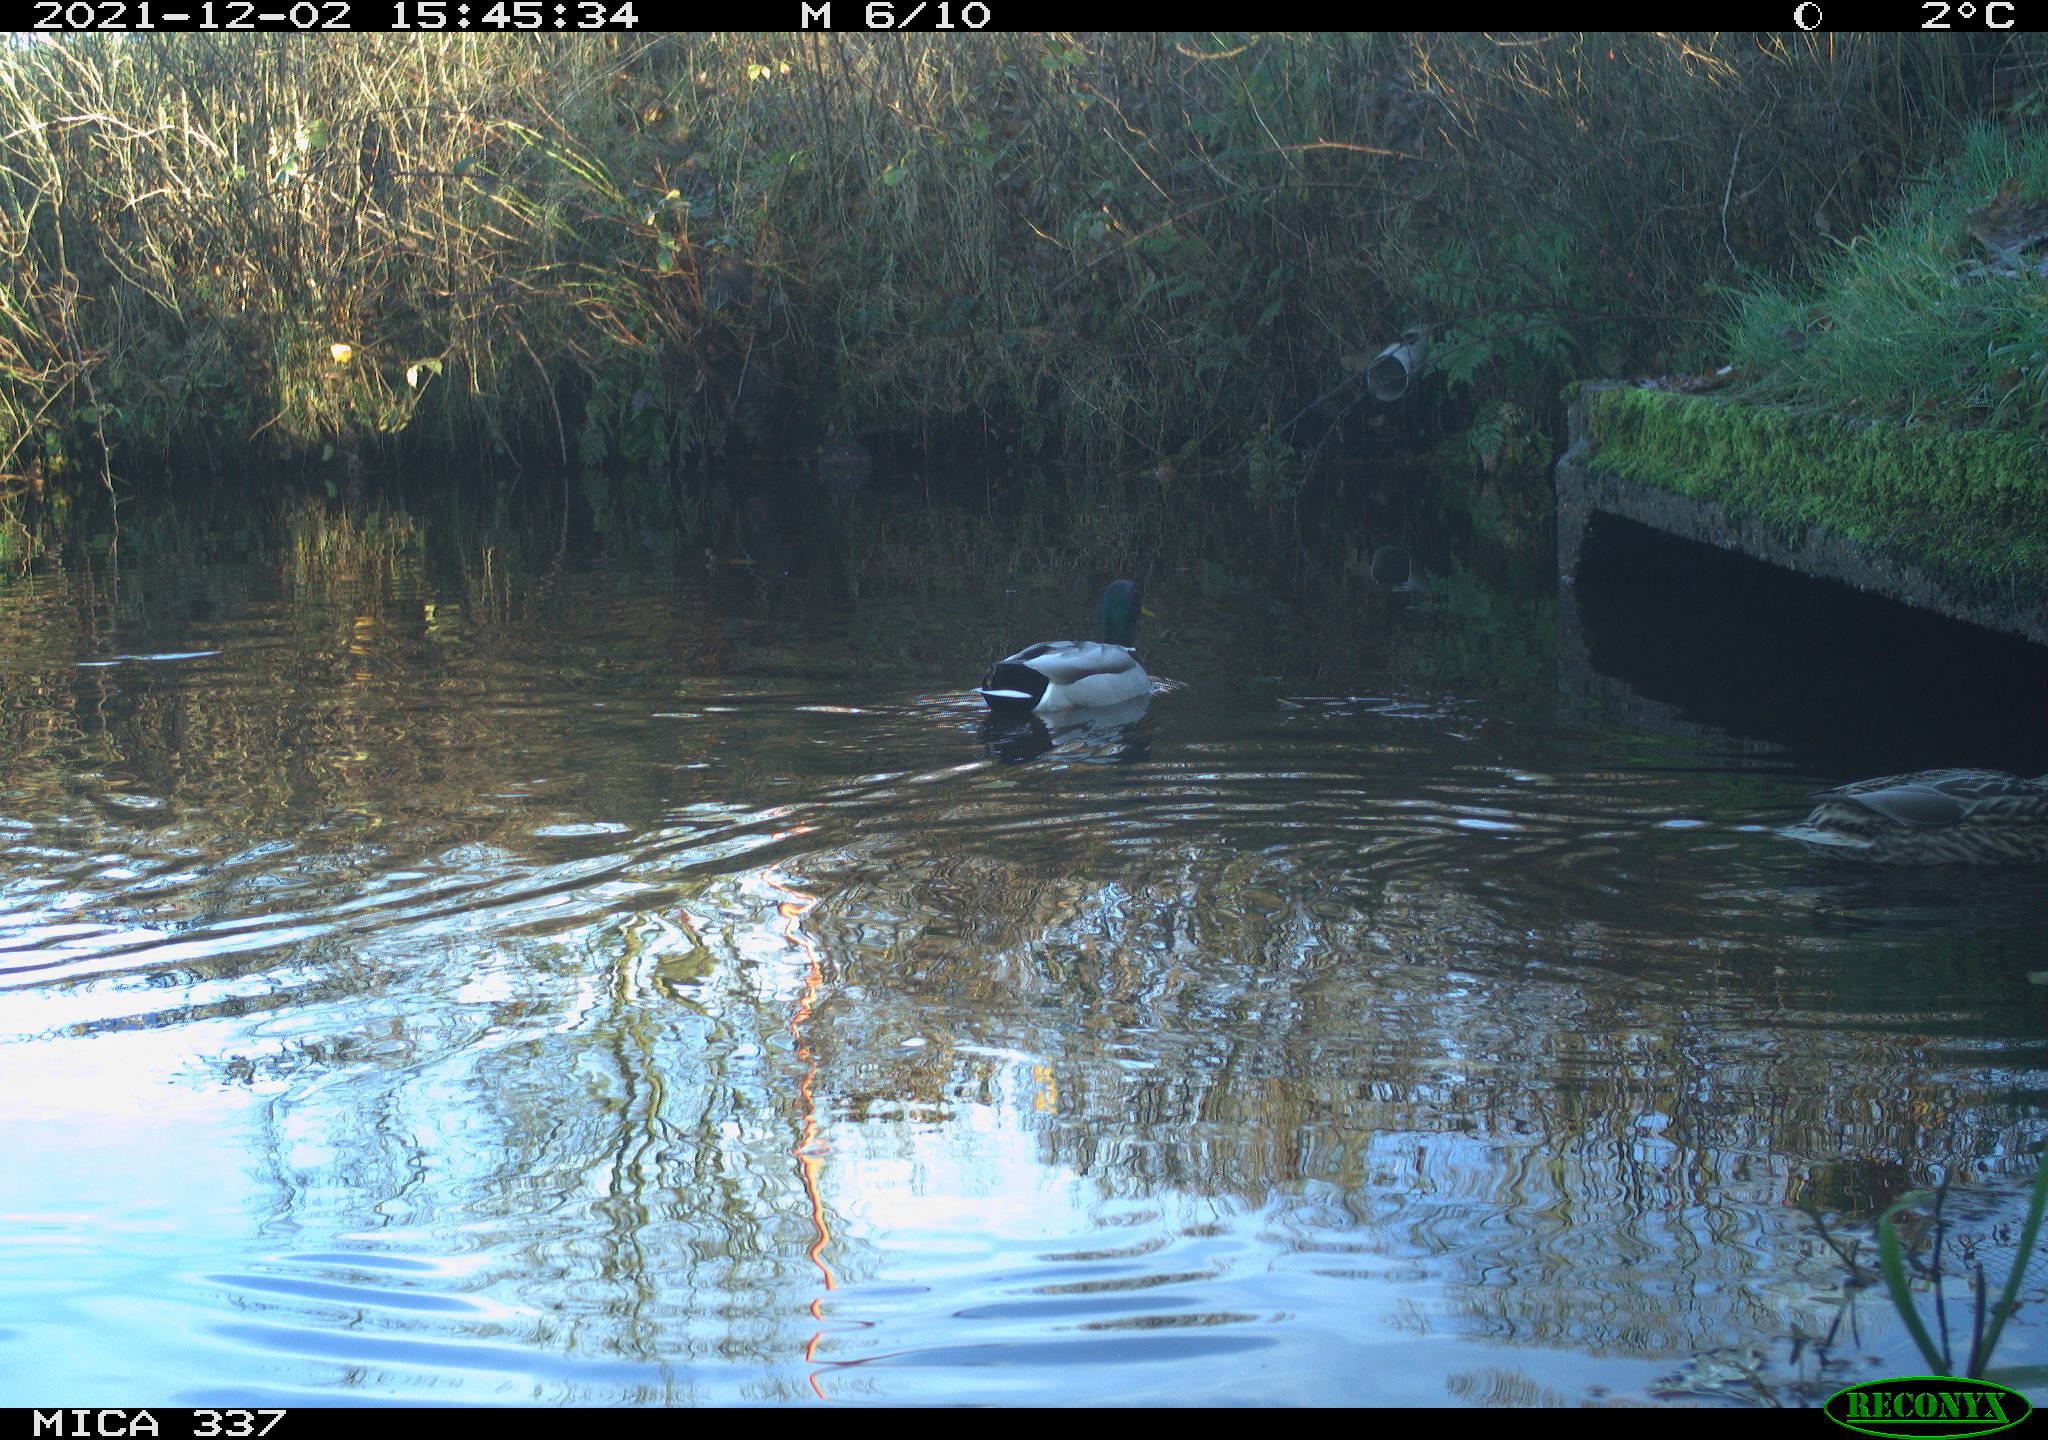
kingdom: Animalia
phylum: Chordata
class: Aves
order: Anseriformes
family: Anatidae
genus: Anas
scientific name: Anas platyrhynchos
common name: Mallard
